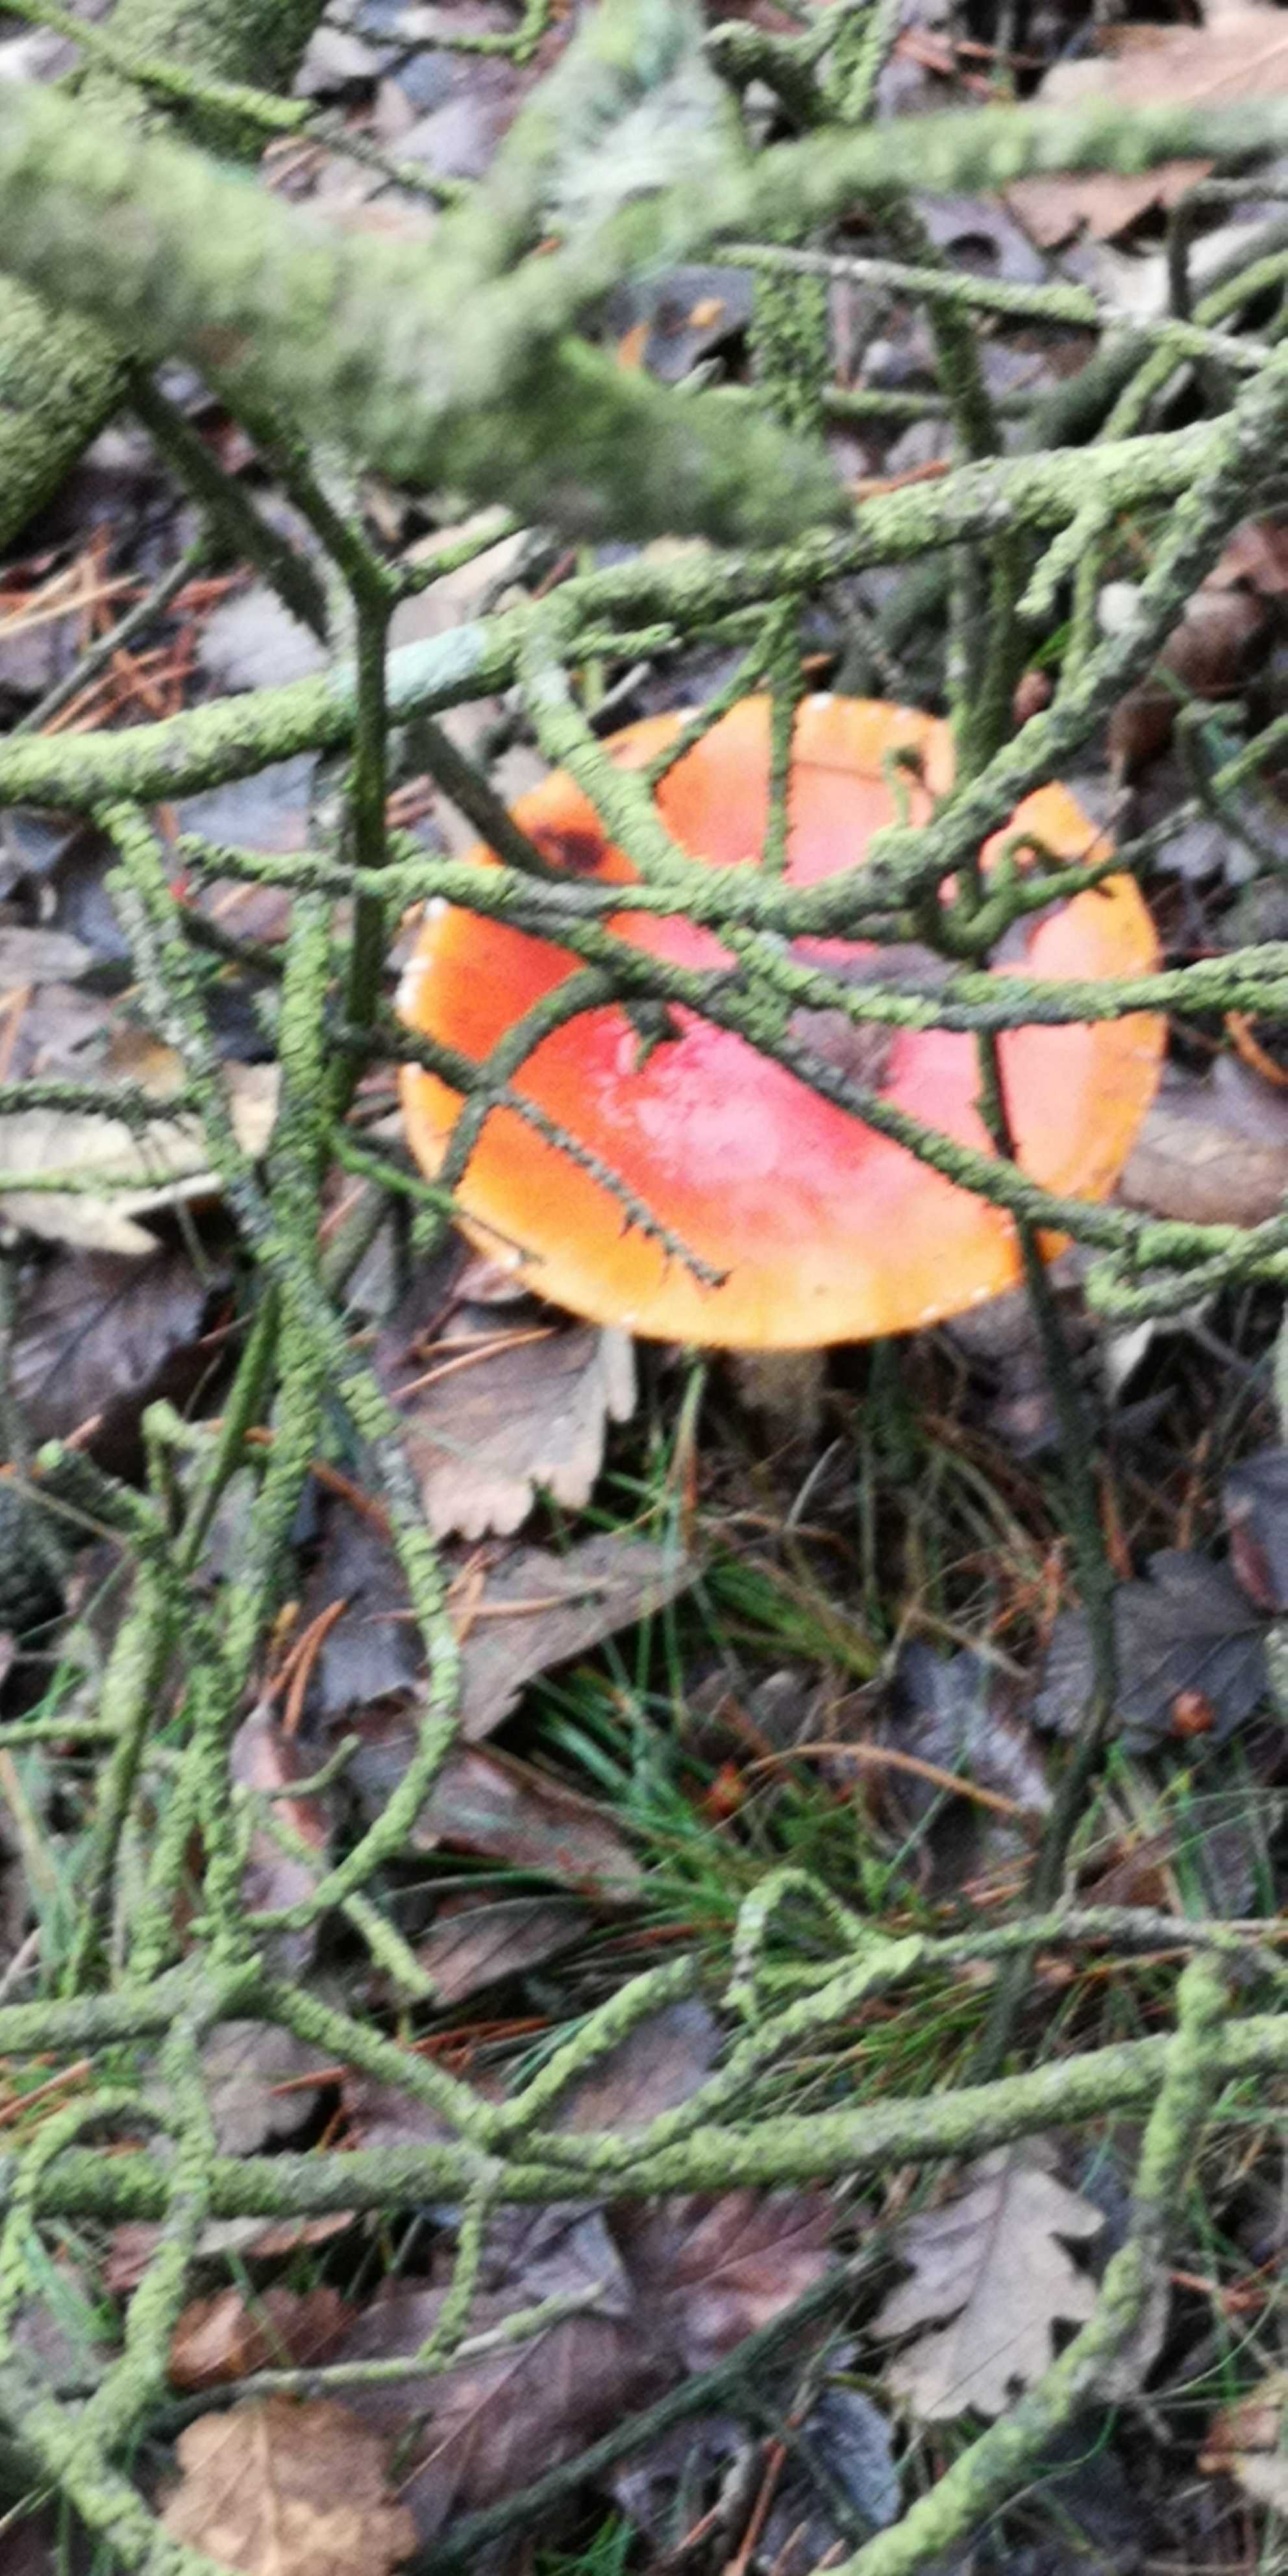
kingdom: Fungi
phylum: Basidiomycota
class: Agaricomycetes
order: Agaricales
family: Amanitaceae
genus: Amanita
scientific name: Amanita muscaria
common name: rød fluesvamp
